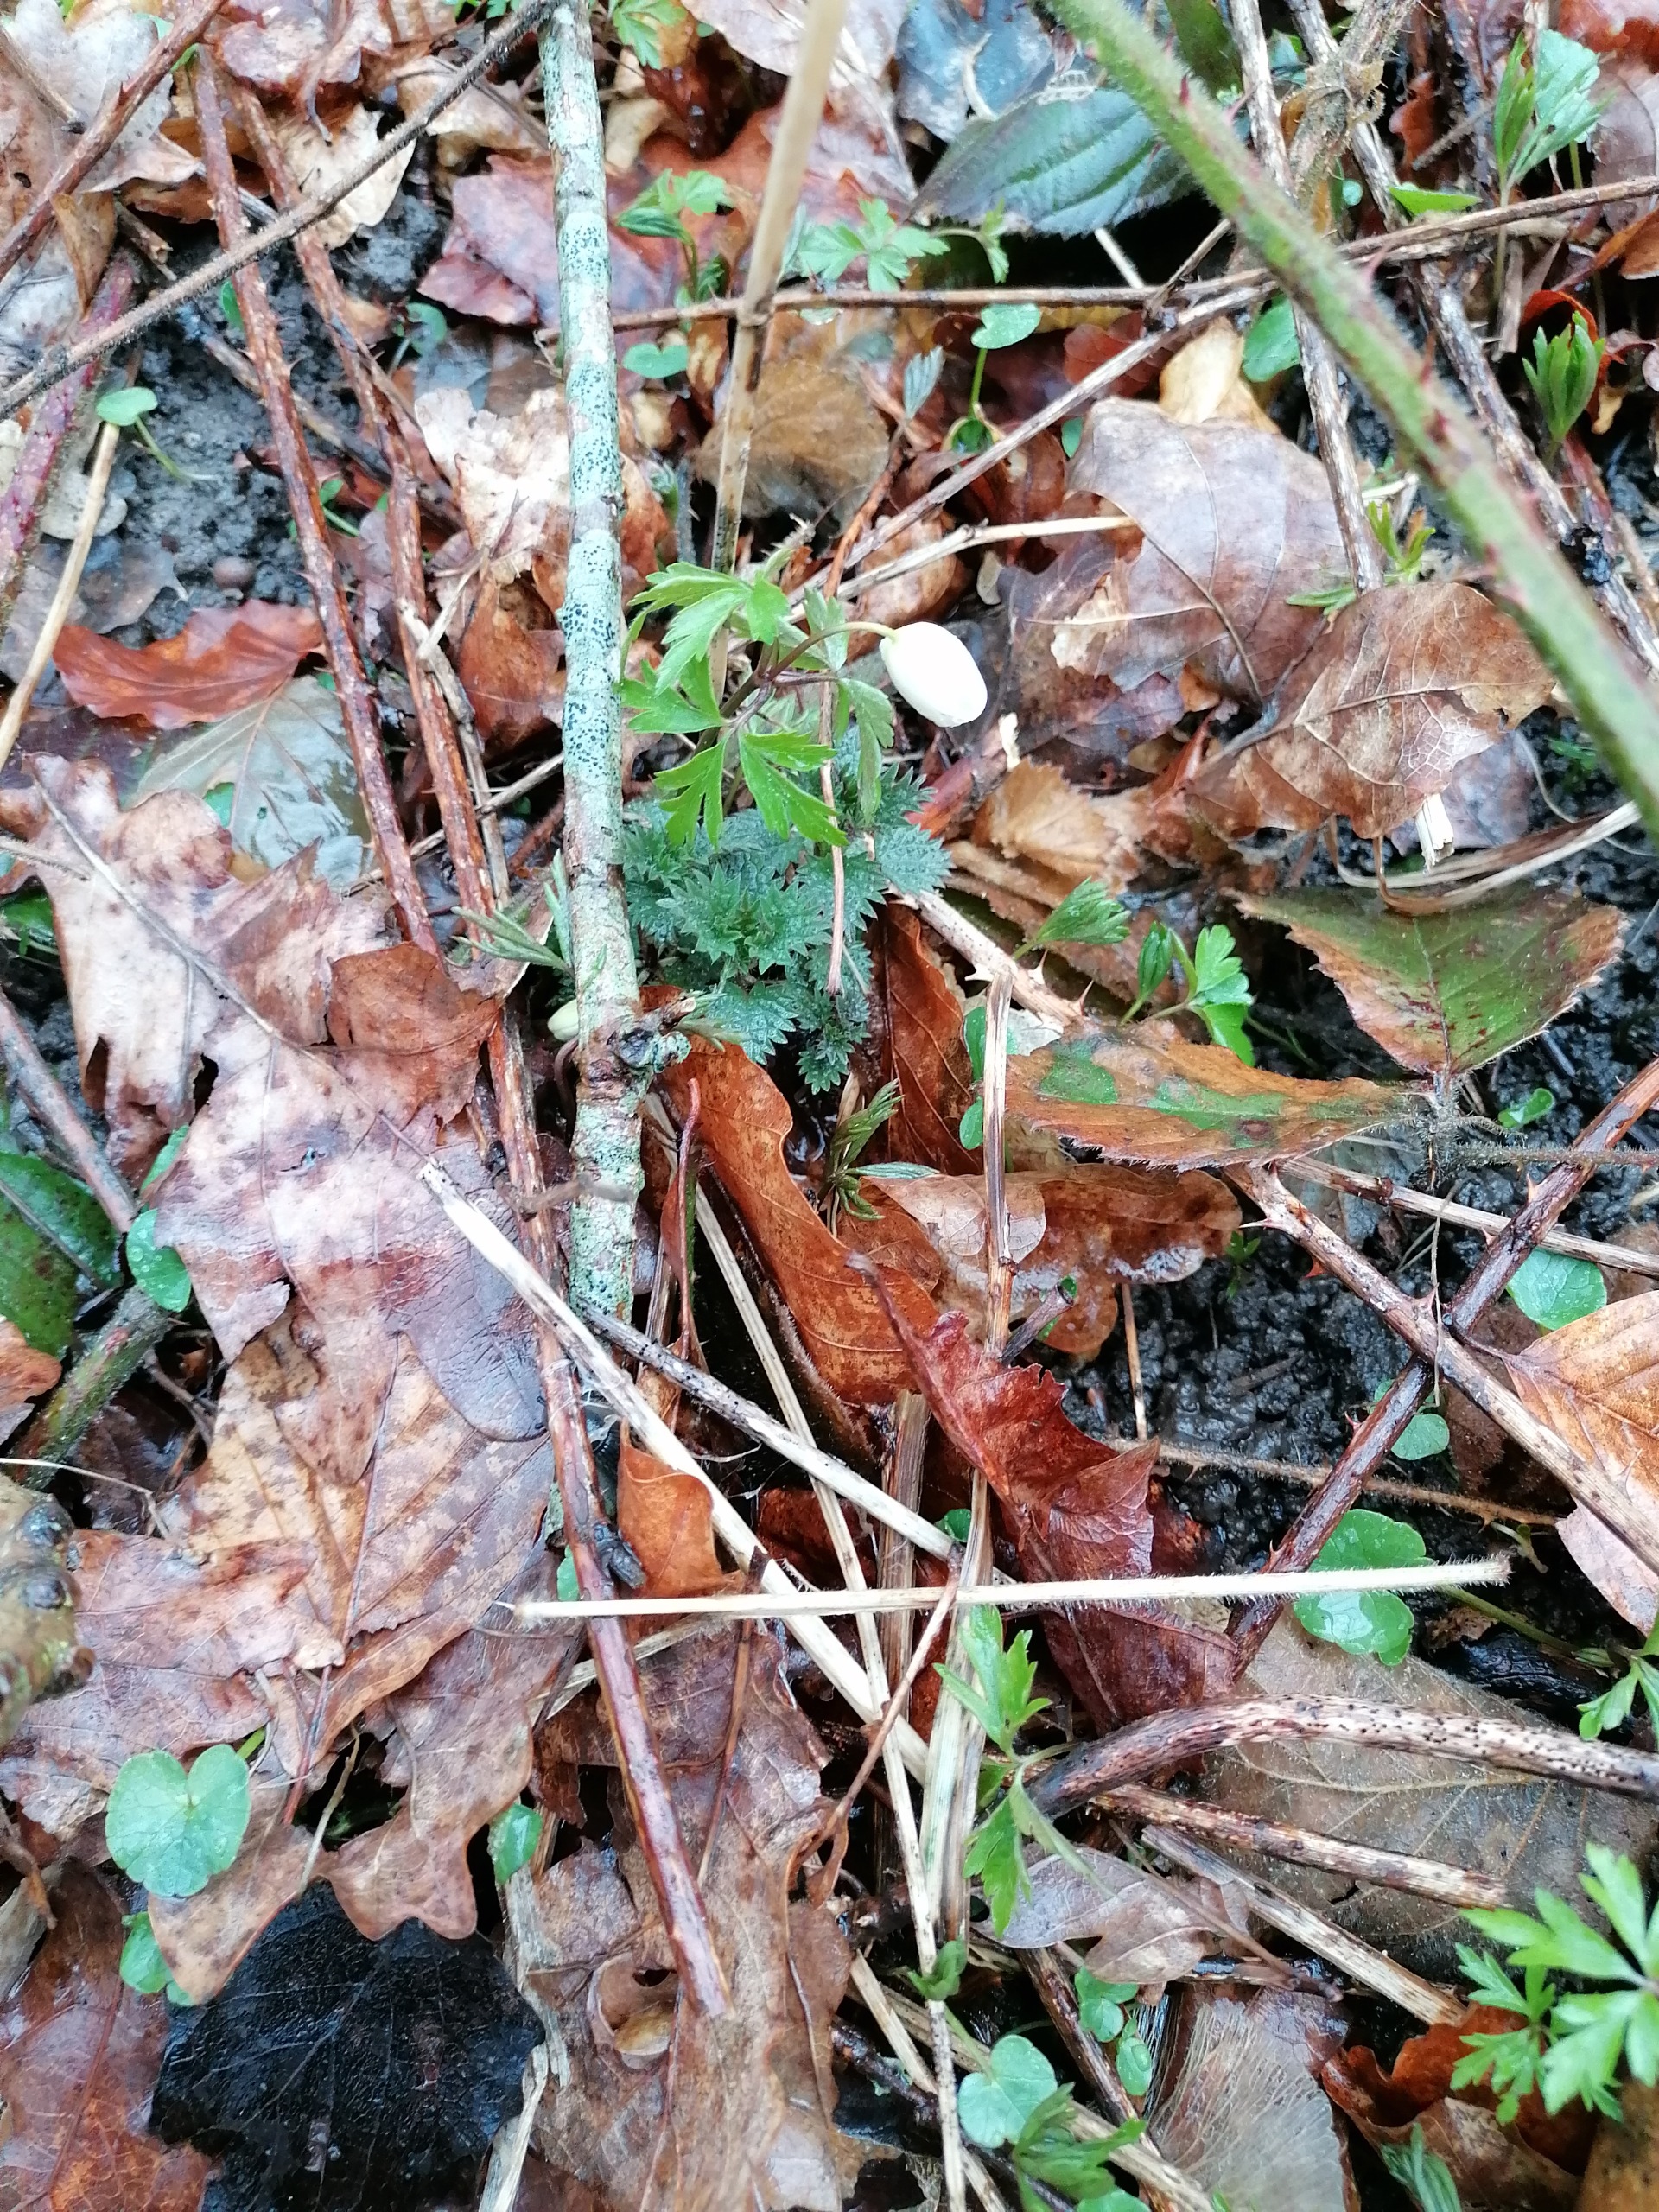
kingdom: Plantae
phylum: Tracheophyta
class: Magnoliopsida
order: Ranunculales
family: Ranunculaceae
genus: Anemone
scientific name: Anemone nemorosa
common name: Hvid anemone
